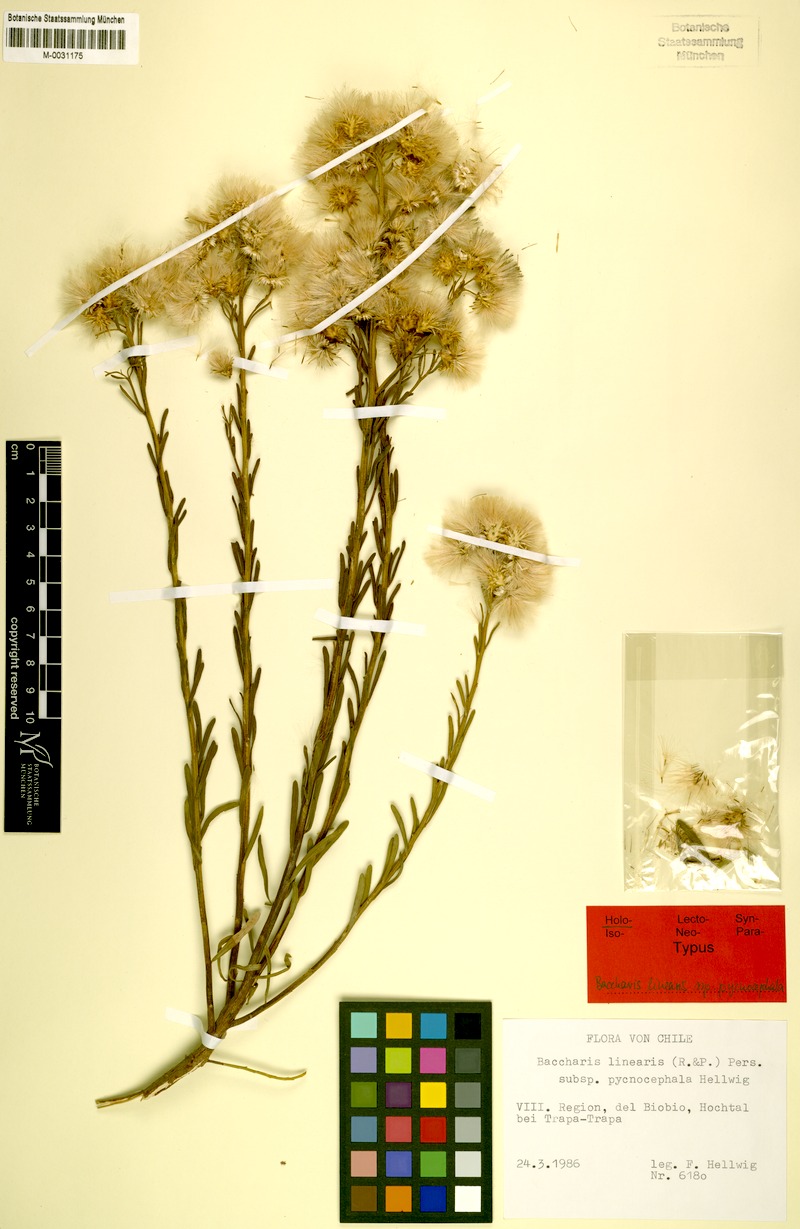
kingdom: Plantae
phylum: Tracheophyta
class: Magnoliopsida
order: Asterales
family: Asteraceae
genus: Baccharis
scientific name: Baccharis
